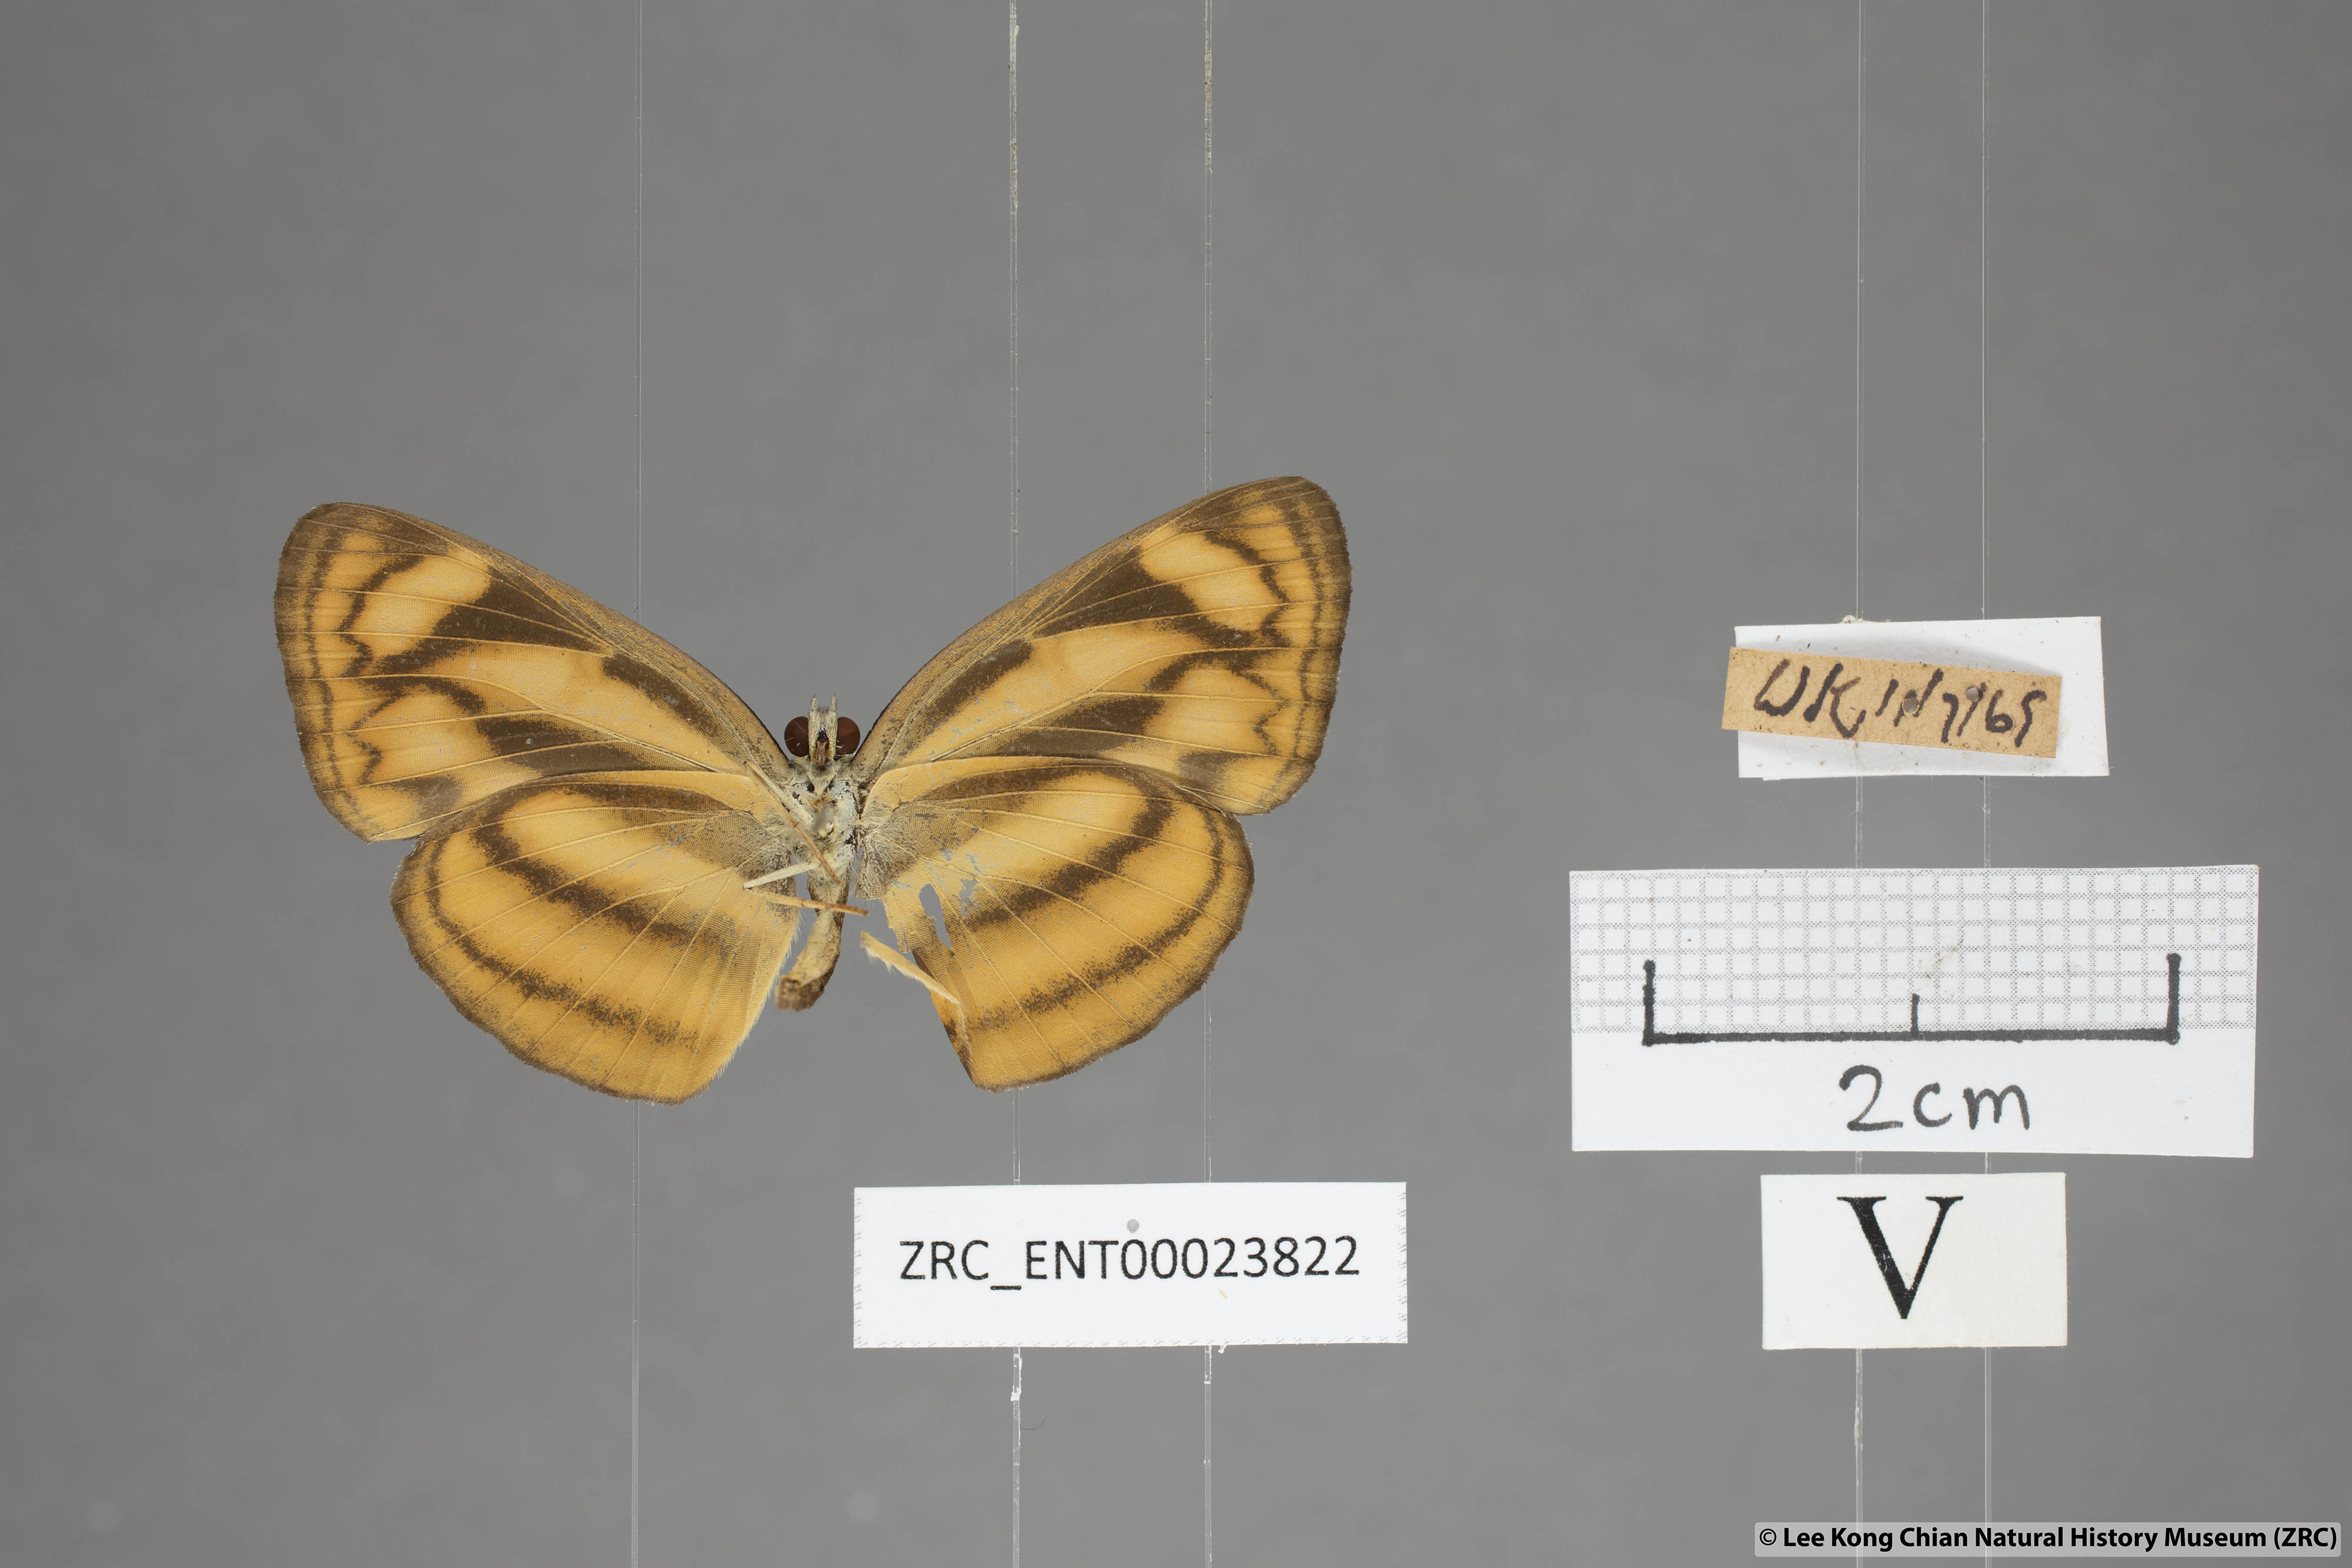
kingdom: Animalia
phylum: Arthropoda
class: Insecta
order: Lepidoptera
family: Nymphalidae
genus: Lasippa
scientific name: Lasippa heliodore
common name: Burmese lascar
